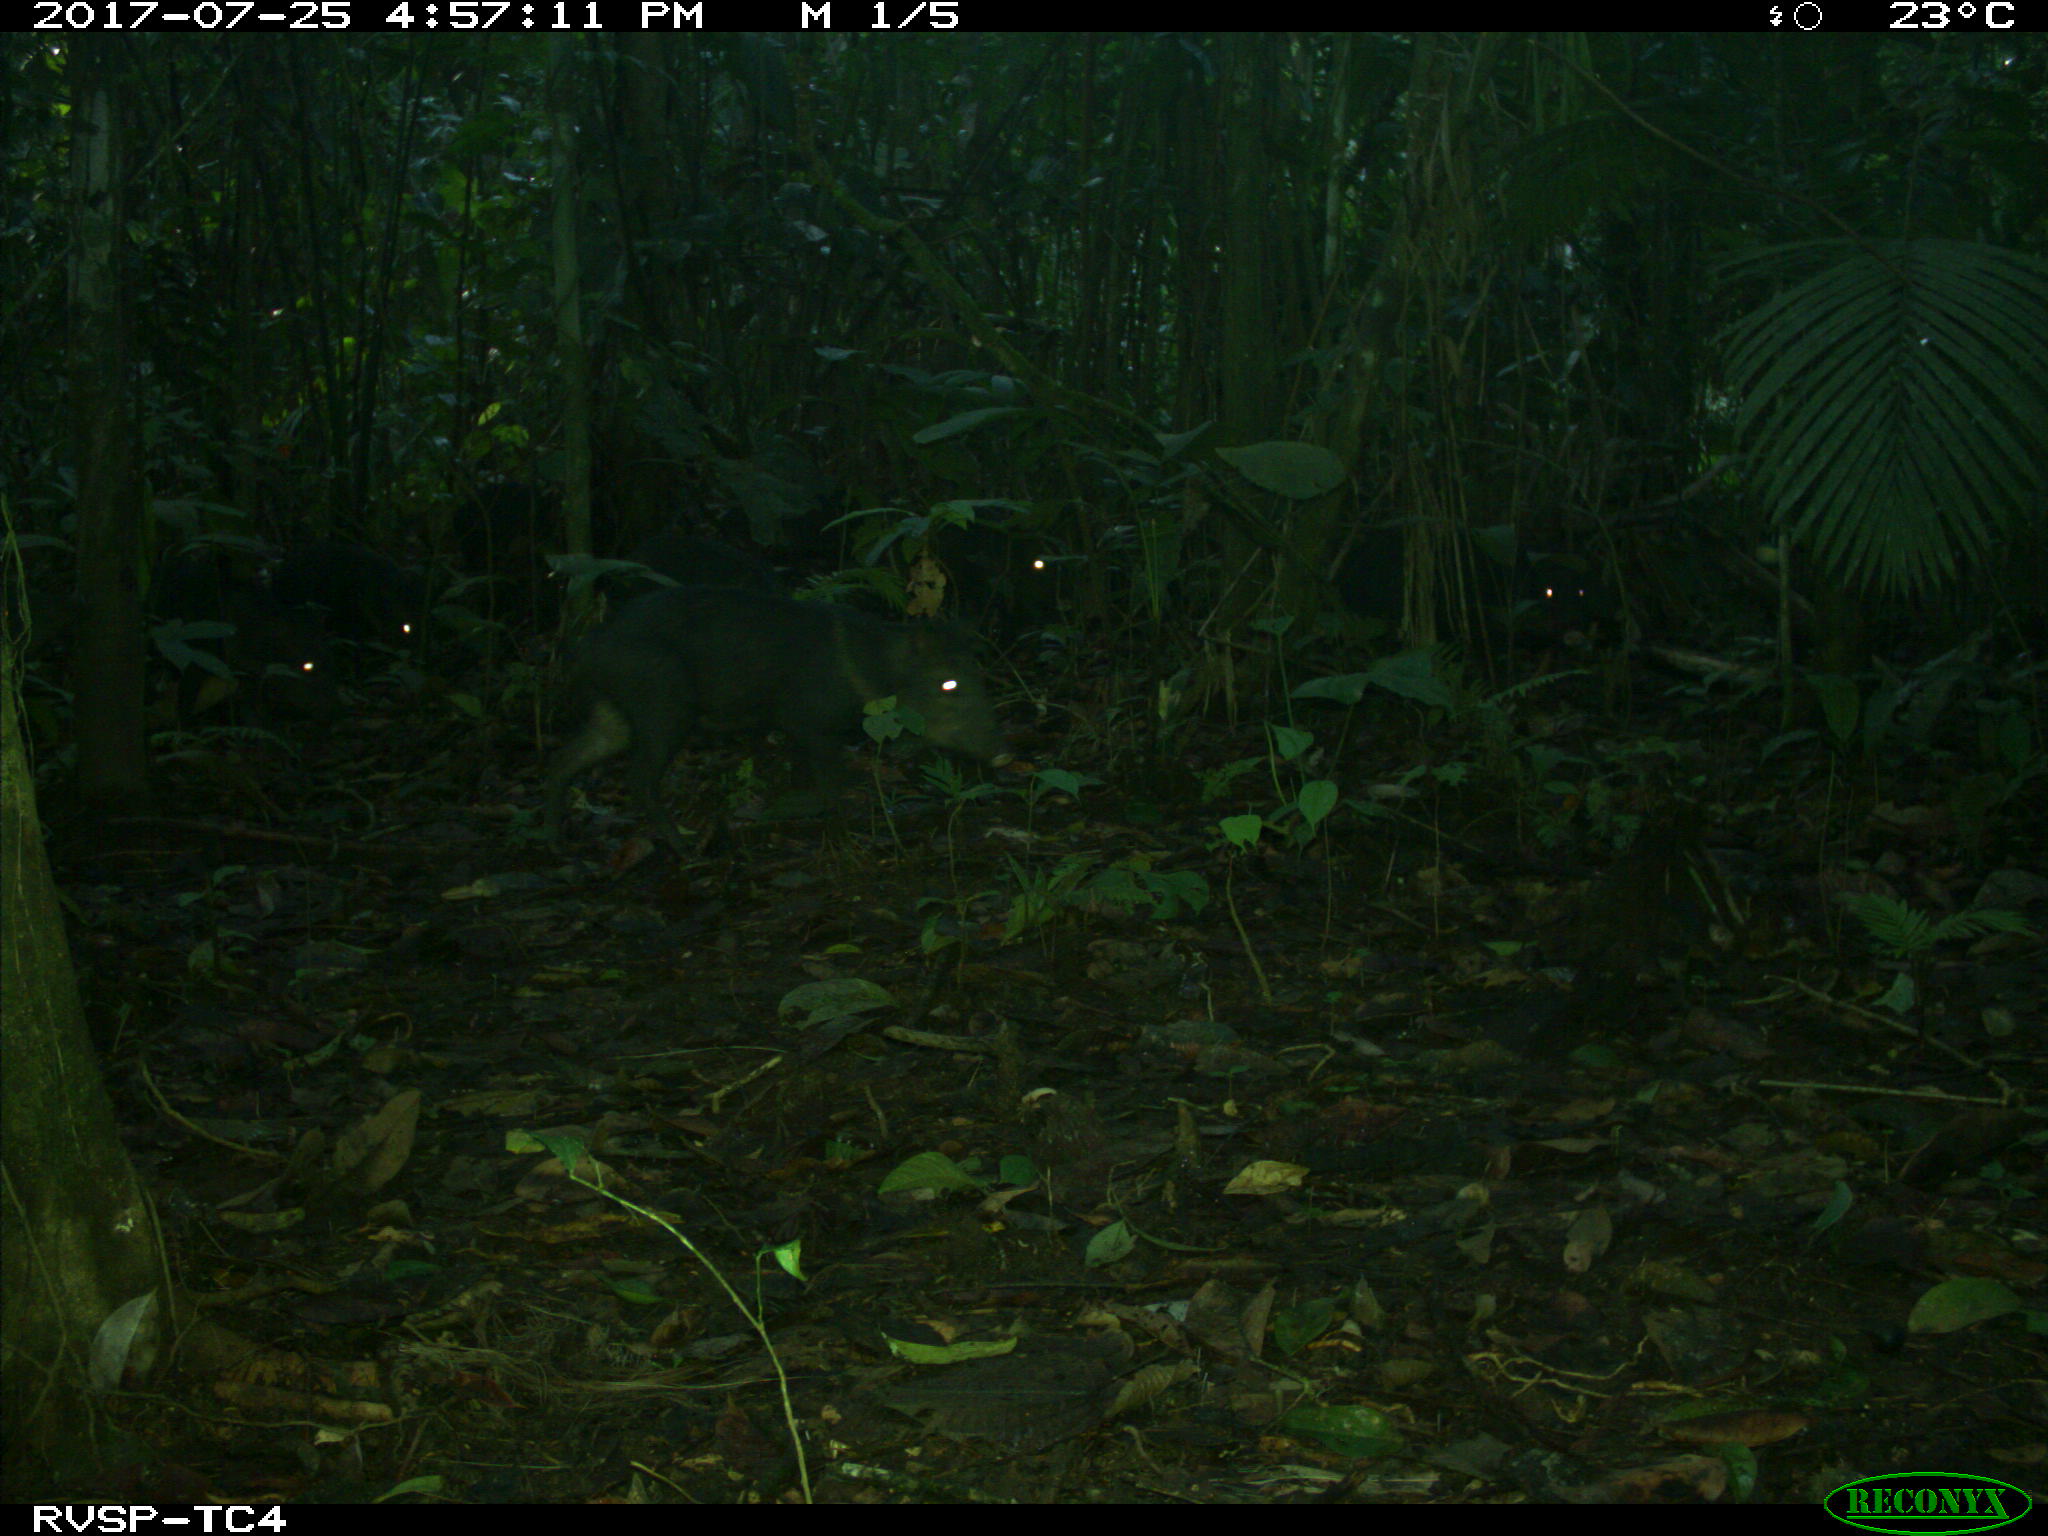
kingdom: Animalia
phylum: Chordata
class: Mammalia
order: Artiodactyla
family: Tayassuidae
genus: Pecari
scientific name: Pecari tajacu
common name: Collared peccary
